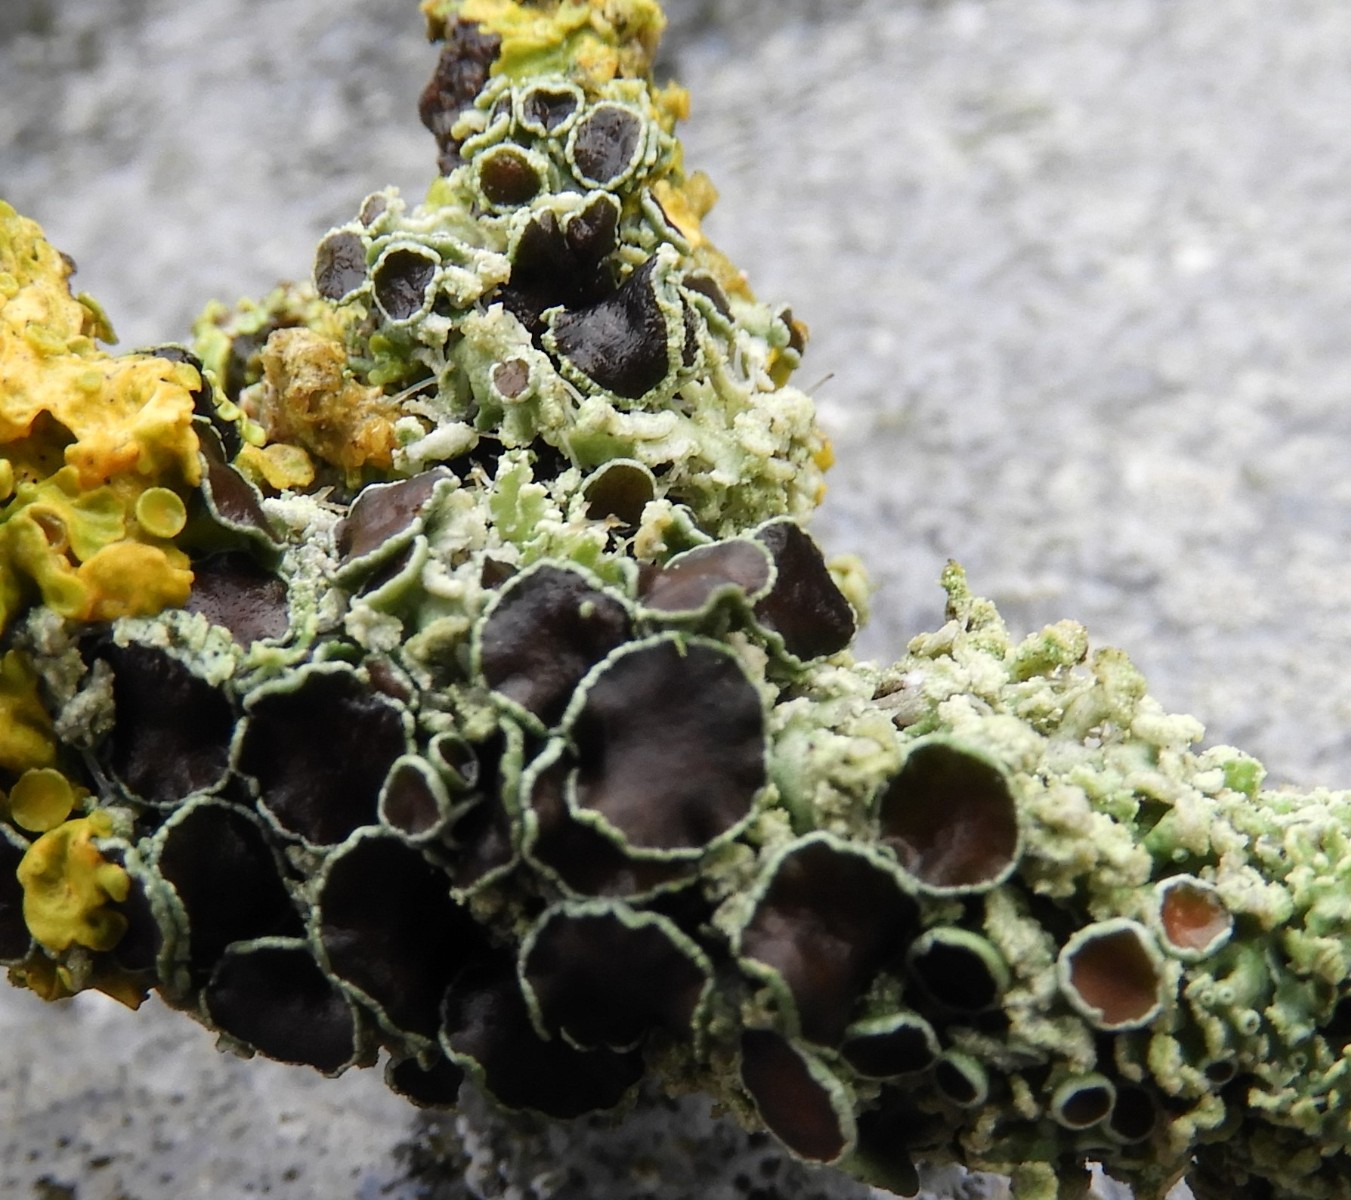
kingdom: Fungi
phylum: Ascomycota
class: Lecanoromycetes
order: Caliciales
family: Physciaceae
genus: Physcia
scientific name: Physcia tenella
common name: spæd rosetlav
